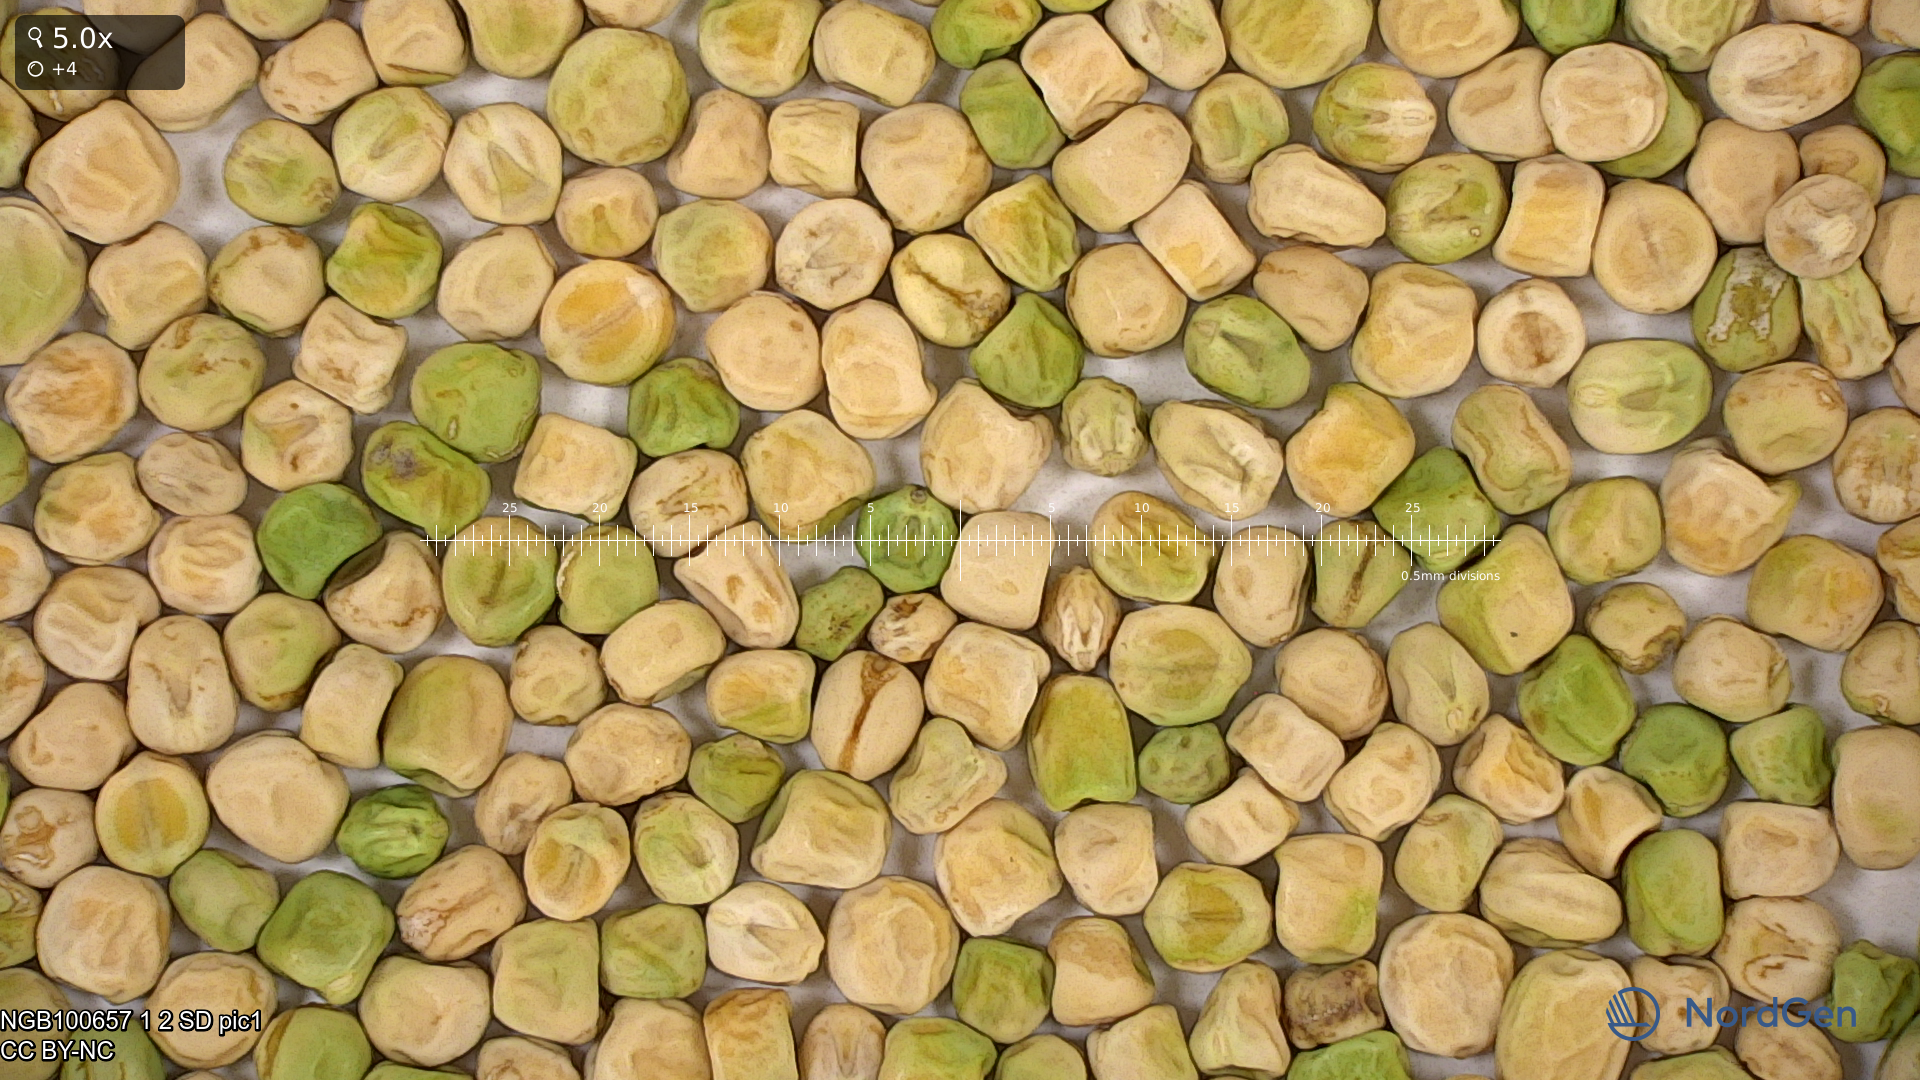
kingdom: Plantae
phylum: Tracheophyta
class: Magnoliopsida
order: Fabales
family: Fabaceae
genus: Lathyrus
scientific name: Lathyrus oleraceus
